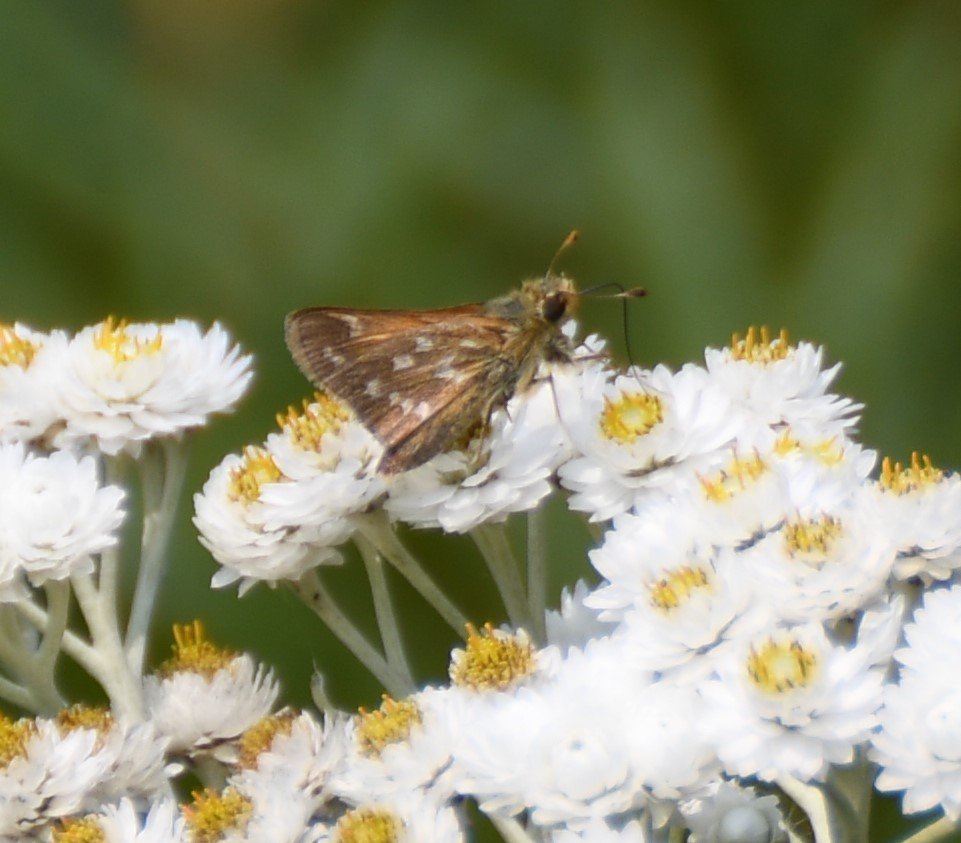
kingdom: Animalia
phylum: Arthropoda
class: Insecta
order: Lepidoptera
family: Hesperiidae
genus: Hesperia
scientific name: Hesperia comma
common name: Common Branded Skipper
